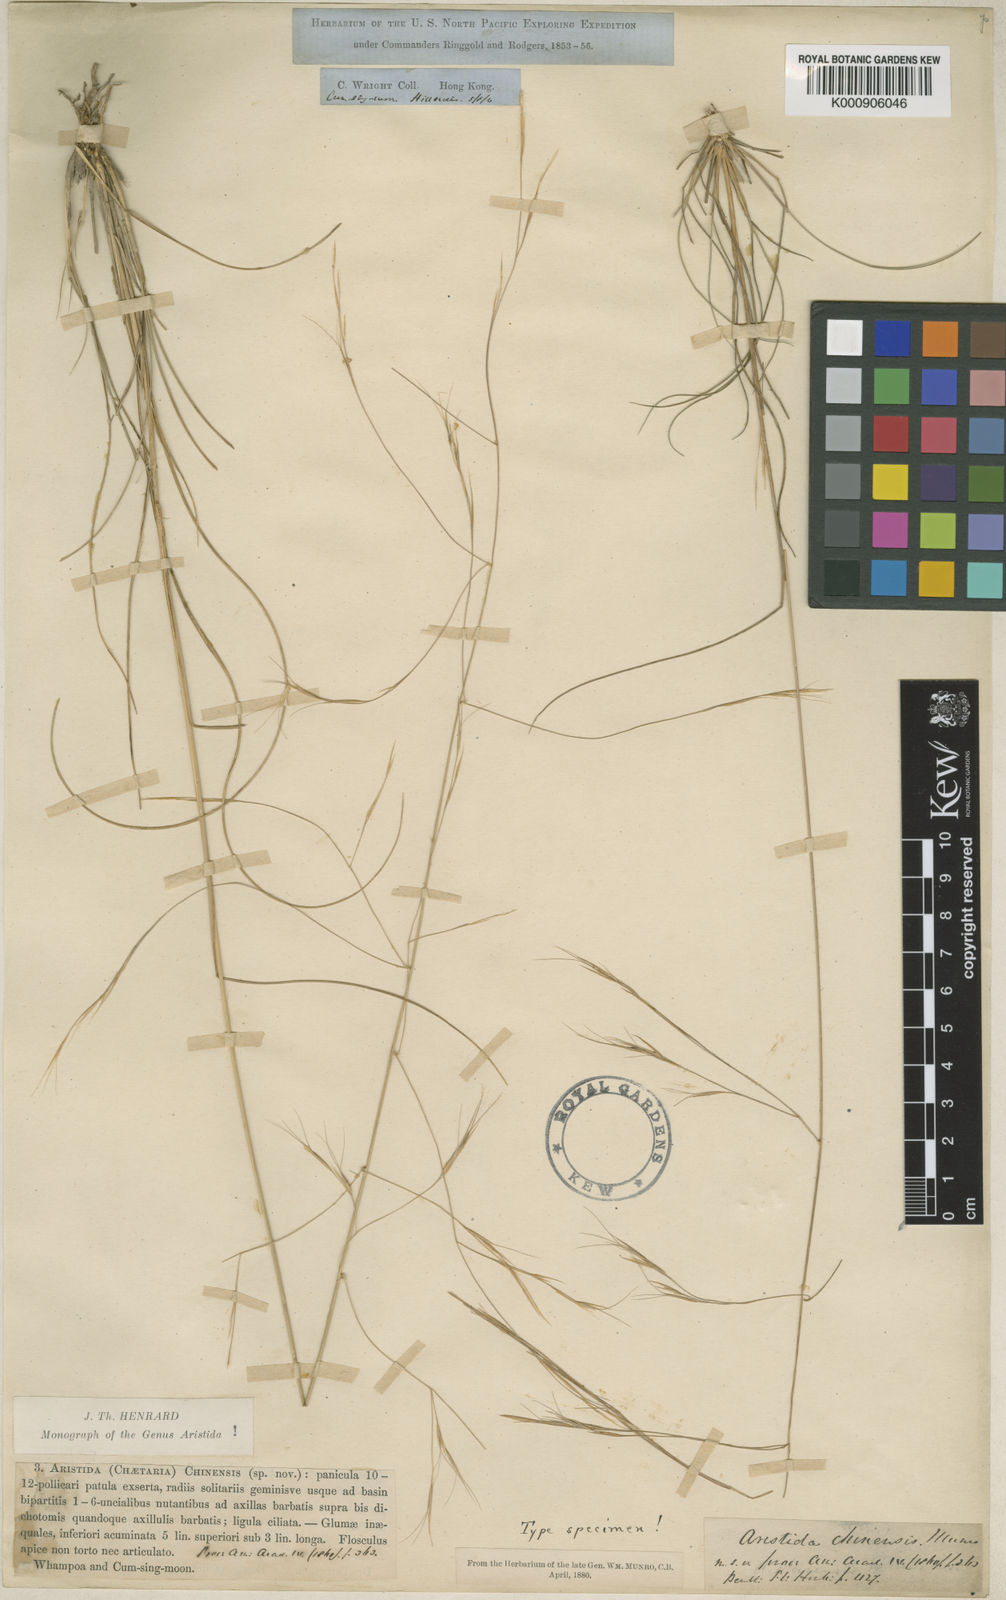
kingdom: Plantae
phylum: Tracheophyta
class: Liliopsida
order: Poales
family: Poaceae
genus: Aristida
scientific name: Aristida chinensis
